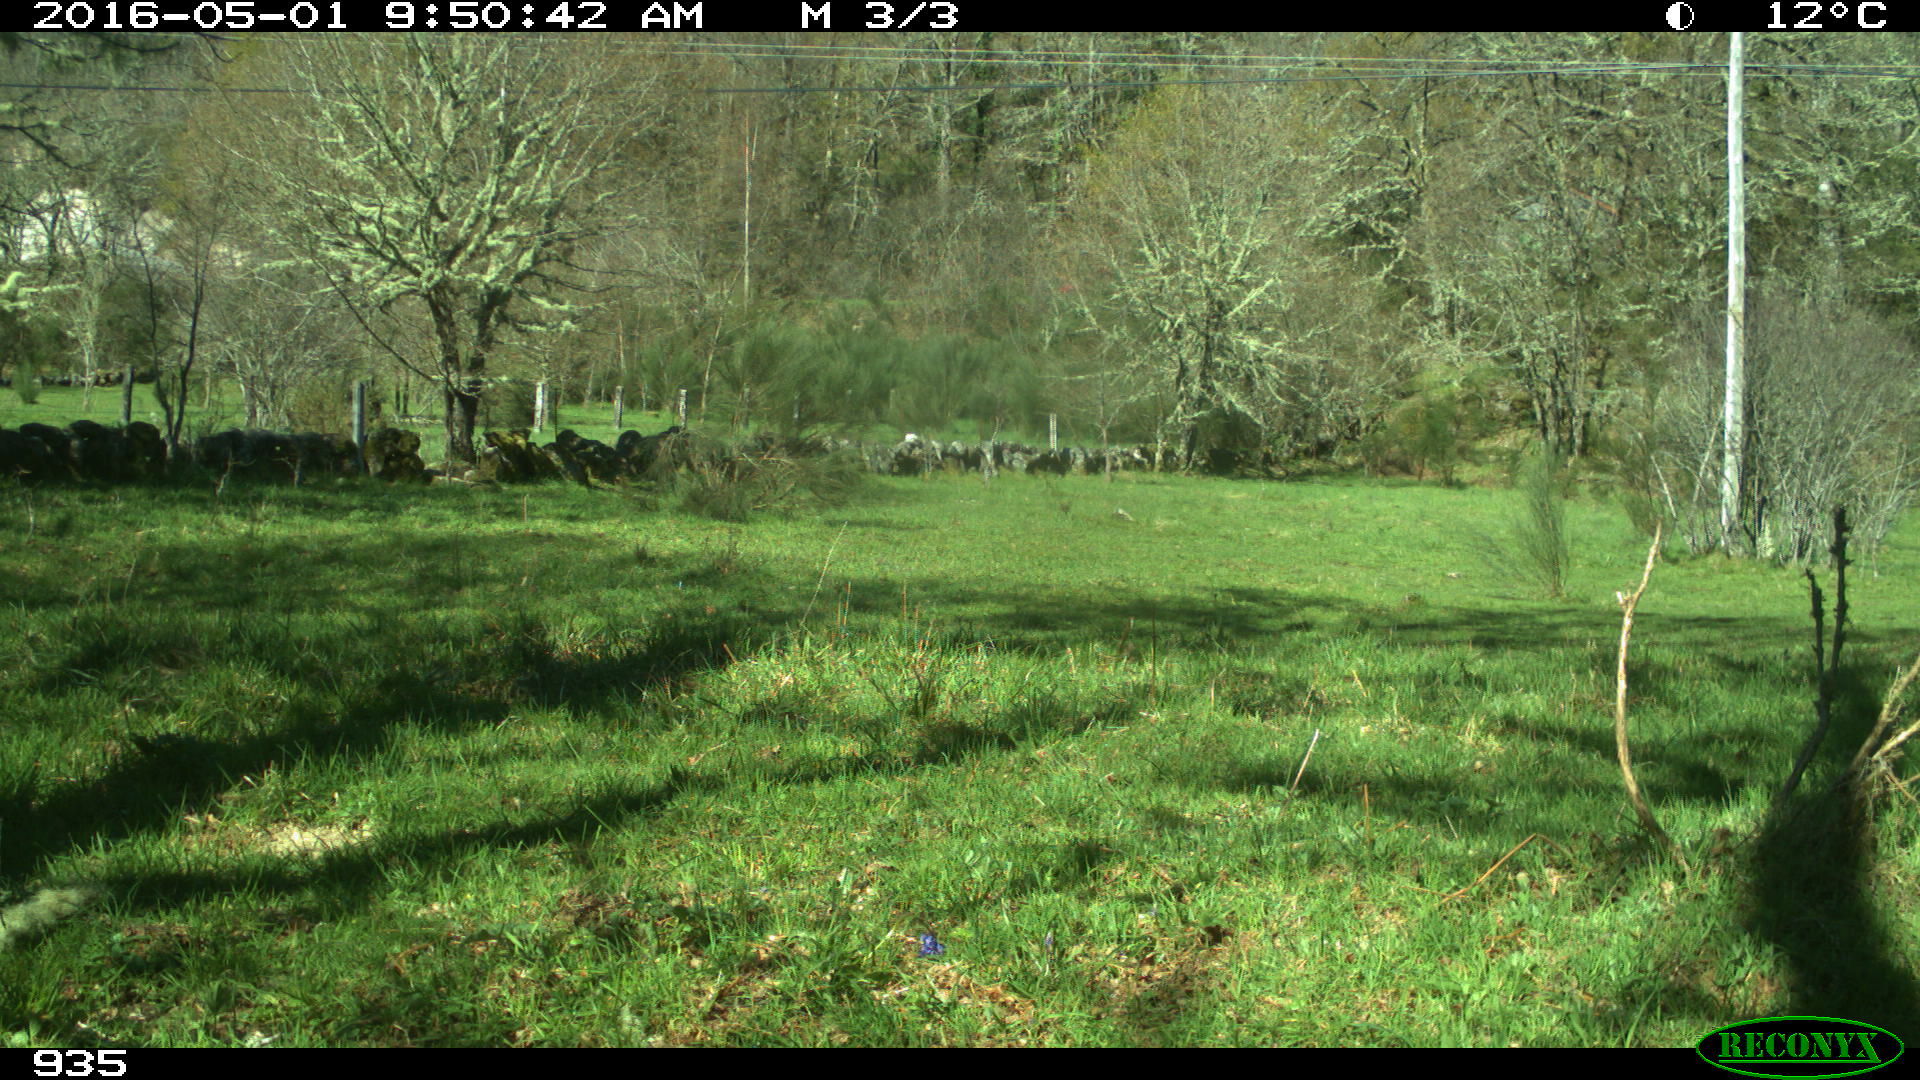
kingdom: Animalia
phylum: Chordata
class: Mammalia
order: Artiodactyla
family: Bovidae
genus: Bos
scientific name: Bos taurus
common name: Domesticated cattle
